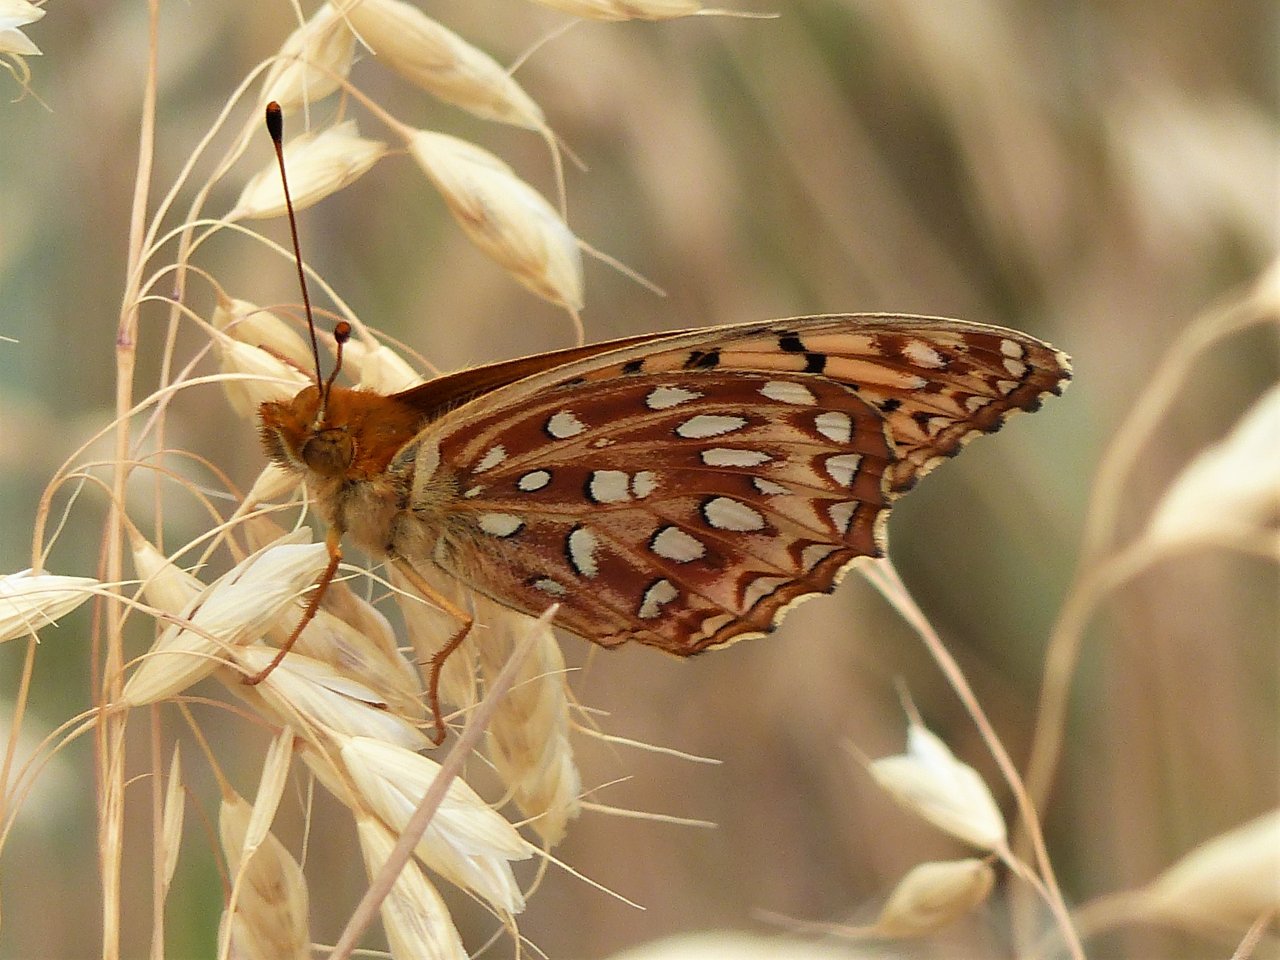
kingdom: Animalia
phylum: Arthropoda
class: Insecta
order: Lepidoptera
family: Nymphalidae
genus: Speyeria
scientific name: Speyeria aphrodite
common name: Aphrodite Fritillary
